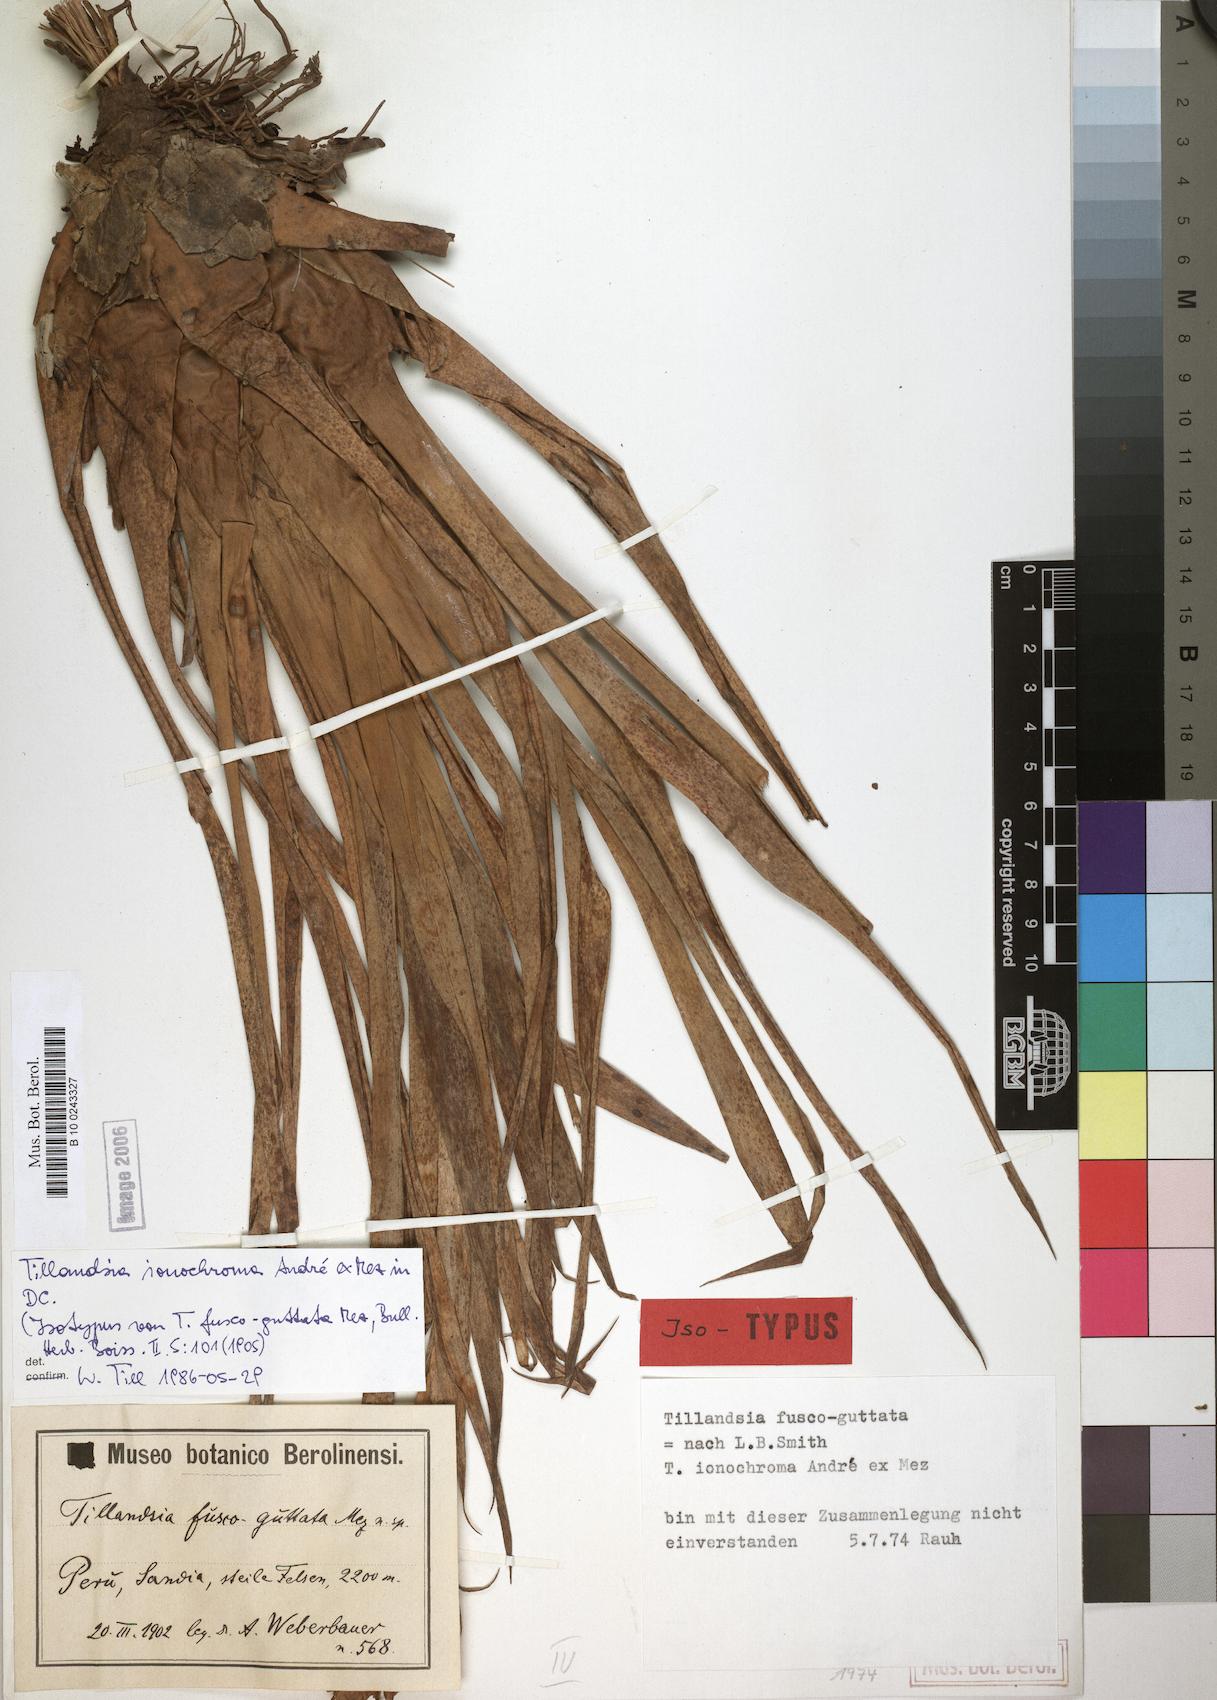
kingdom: Plantae
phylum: Tracheophyta
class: Liliopsida
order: Poales
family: Bromeliaceae
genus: Tillandsia
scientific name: Tillandsia ionochroma
